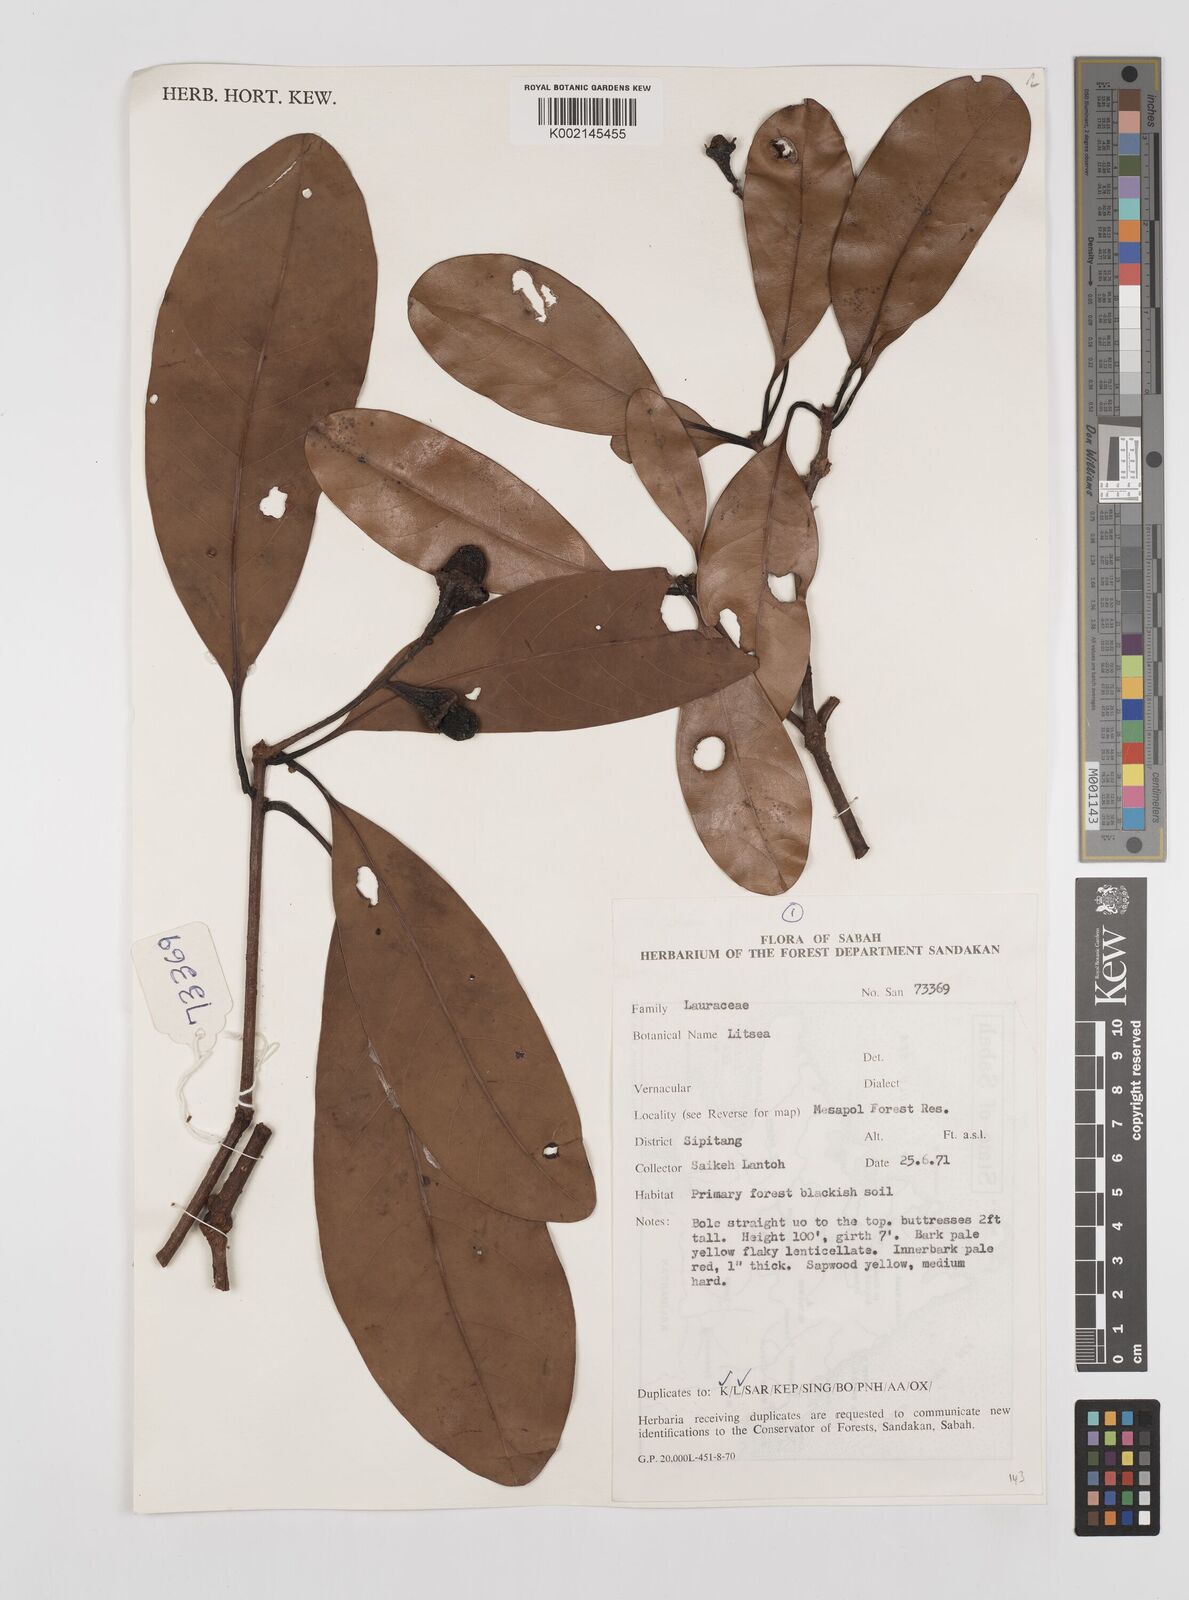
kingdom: Plantae
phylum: Tracheophyta
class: Magnoliopsida
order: Laurales
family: Lauraceae
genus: Litsea
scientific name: Litsea
